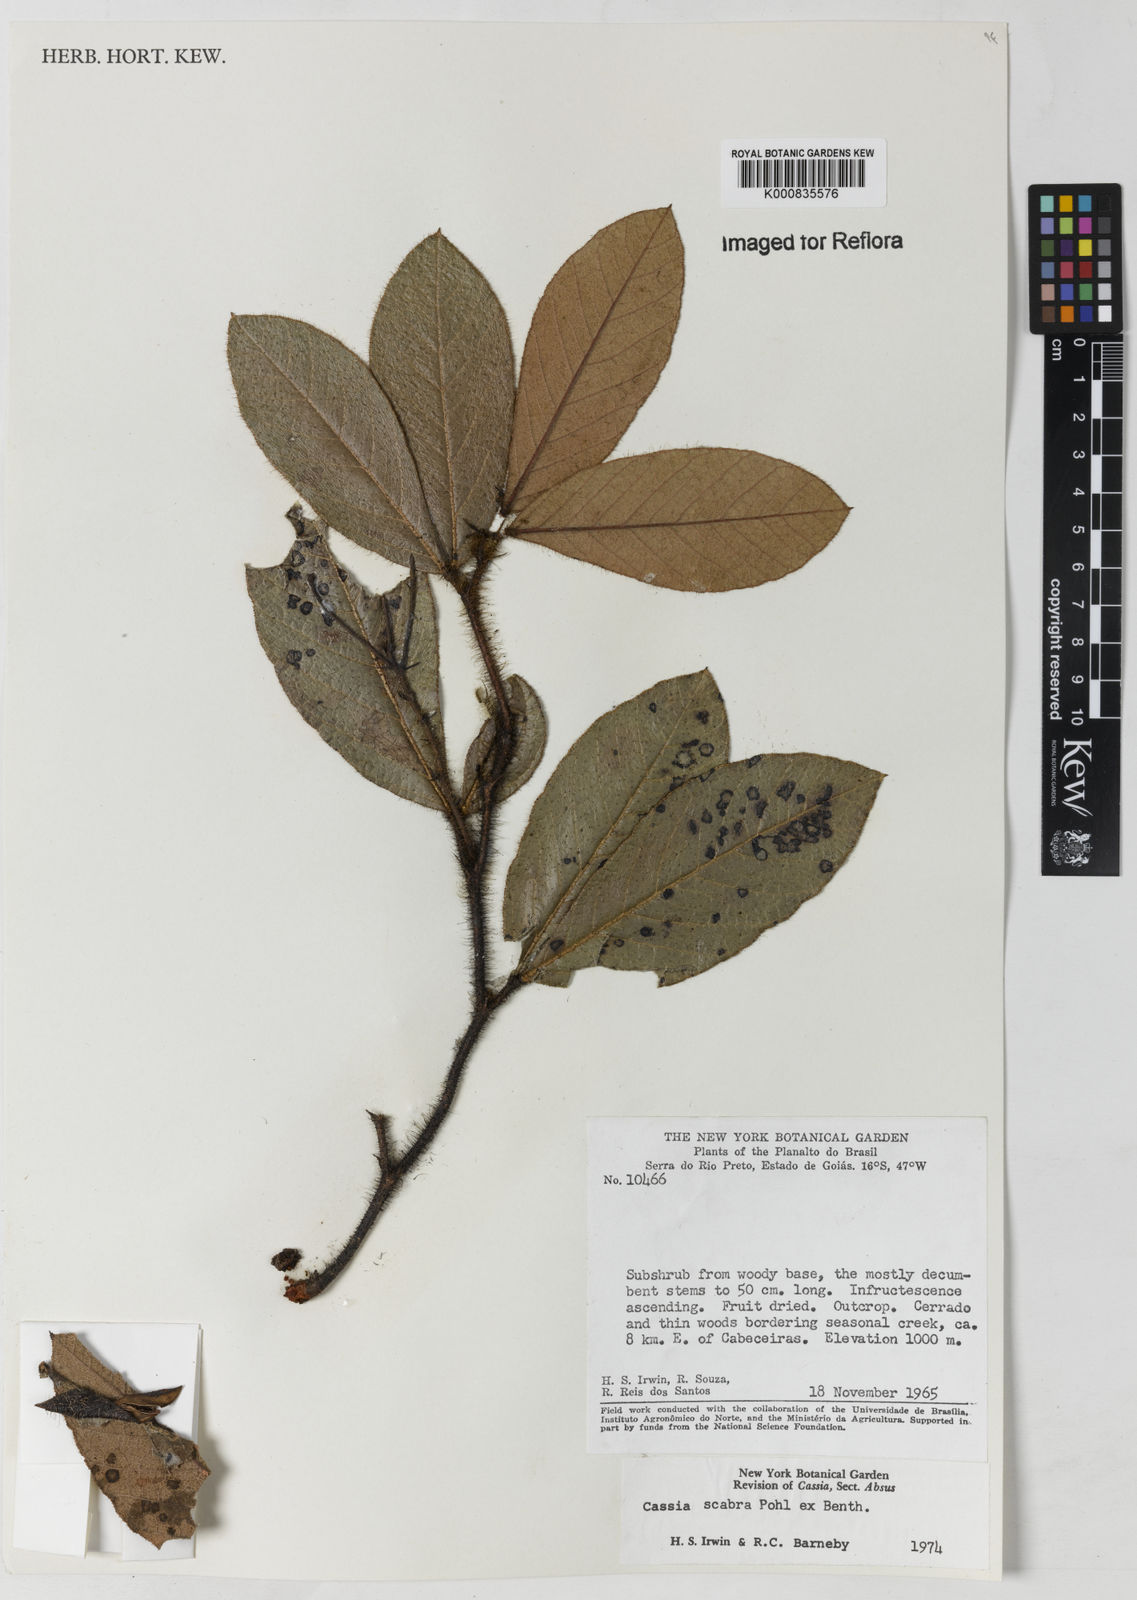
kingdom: Plantae
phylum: Tracheophyta
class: Magnoliopsida
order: Fabales
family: Fabaceae
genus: Chamaecrista
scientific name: Chamaecrista scabra
